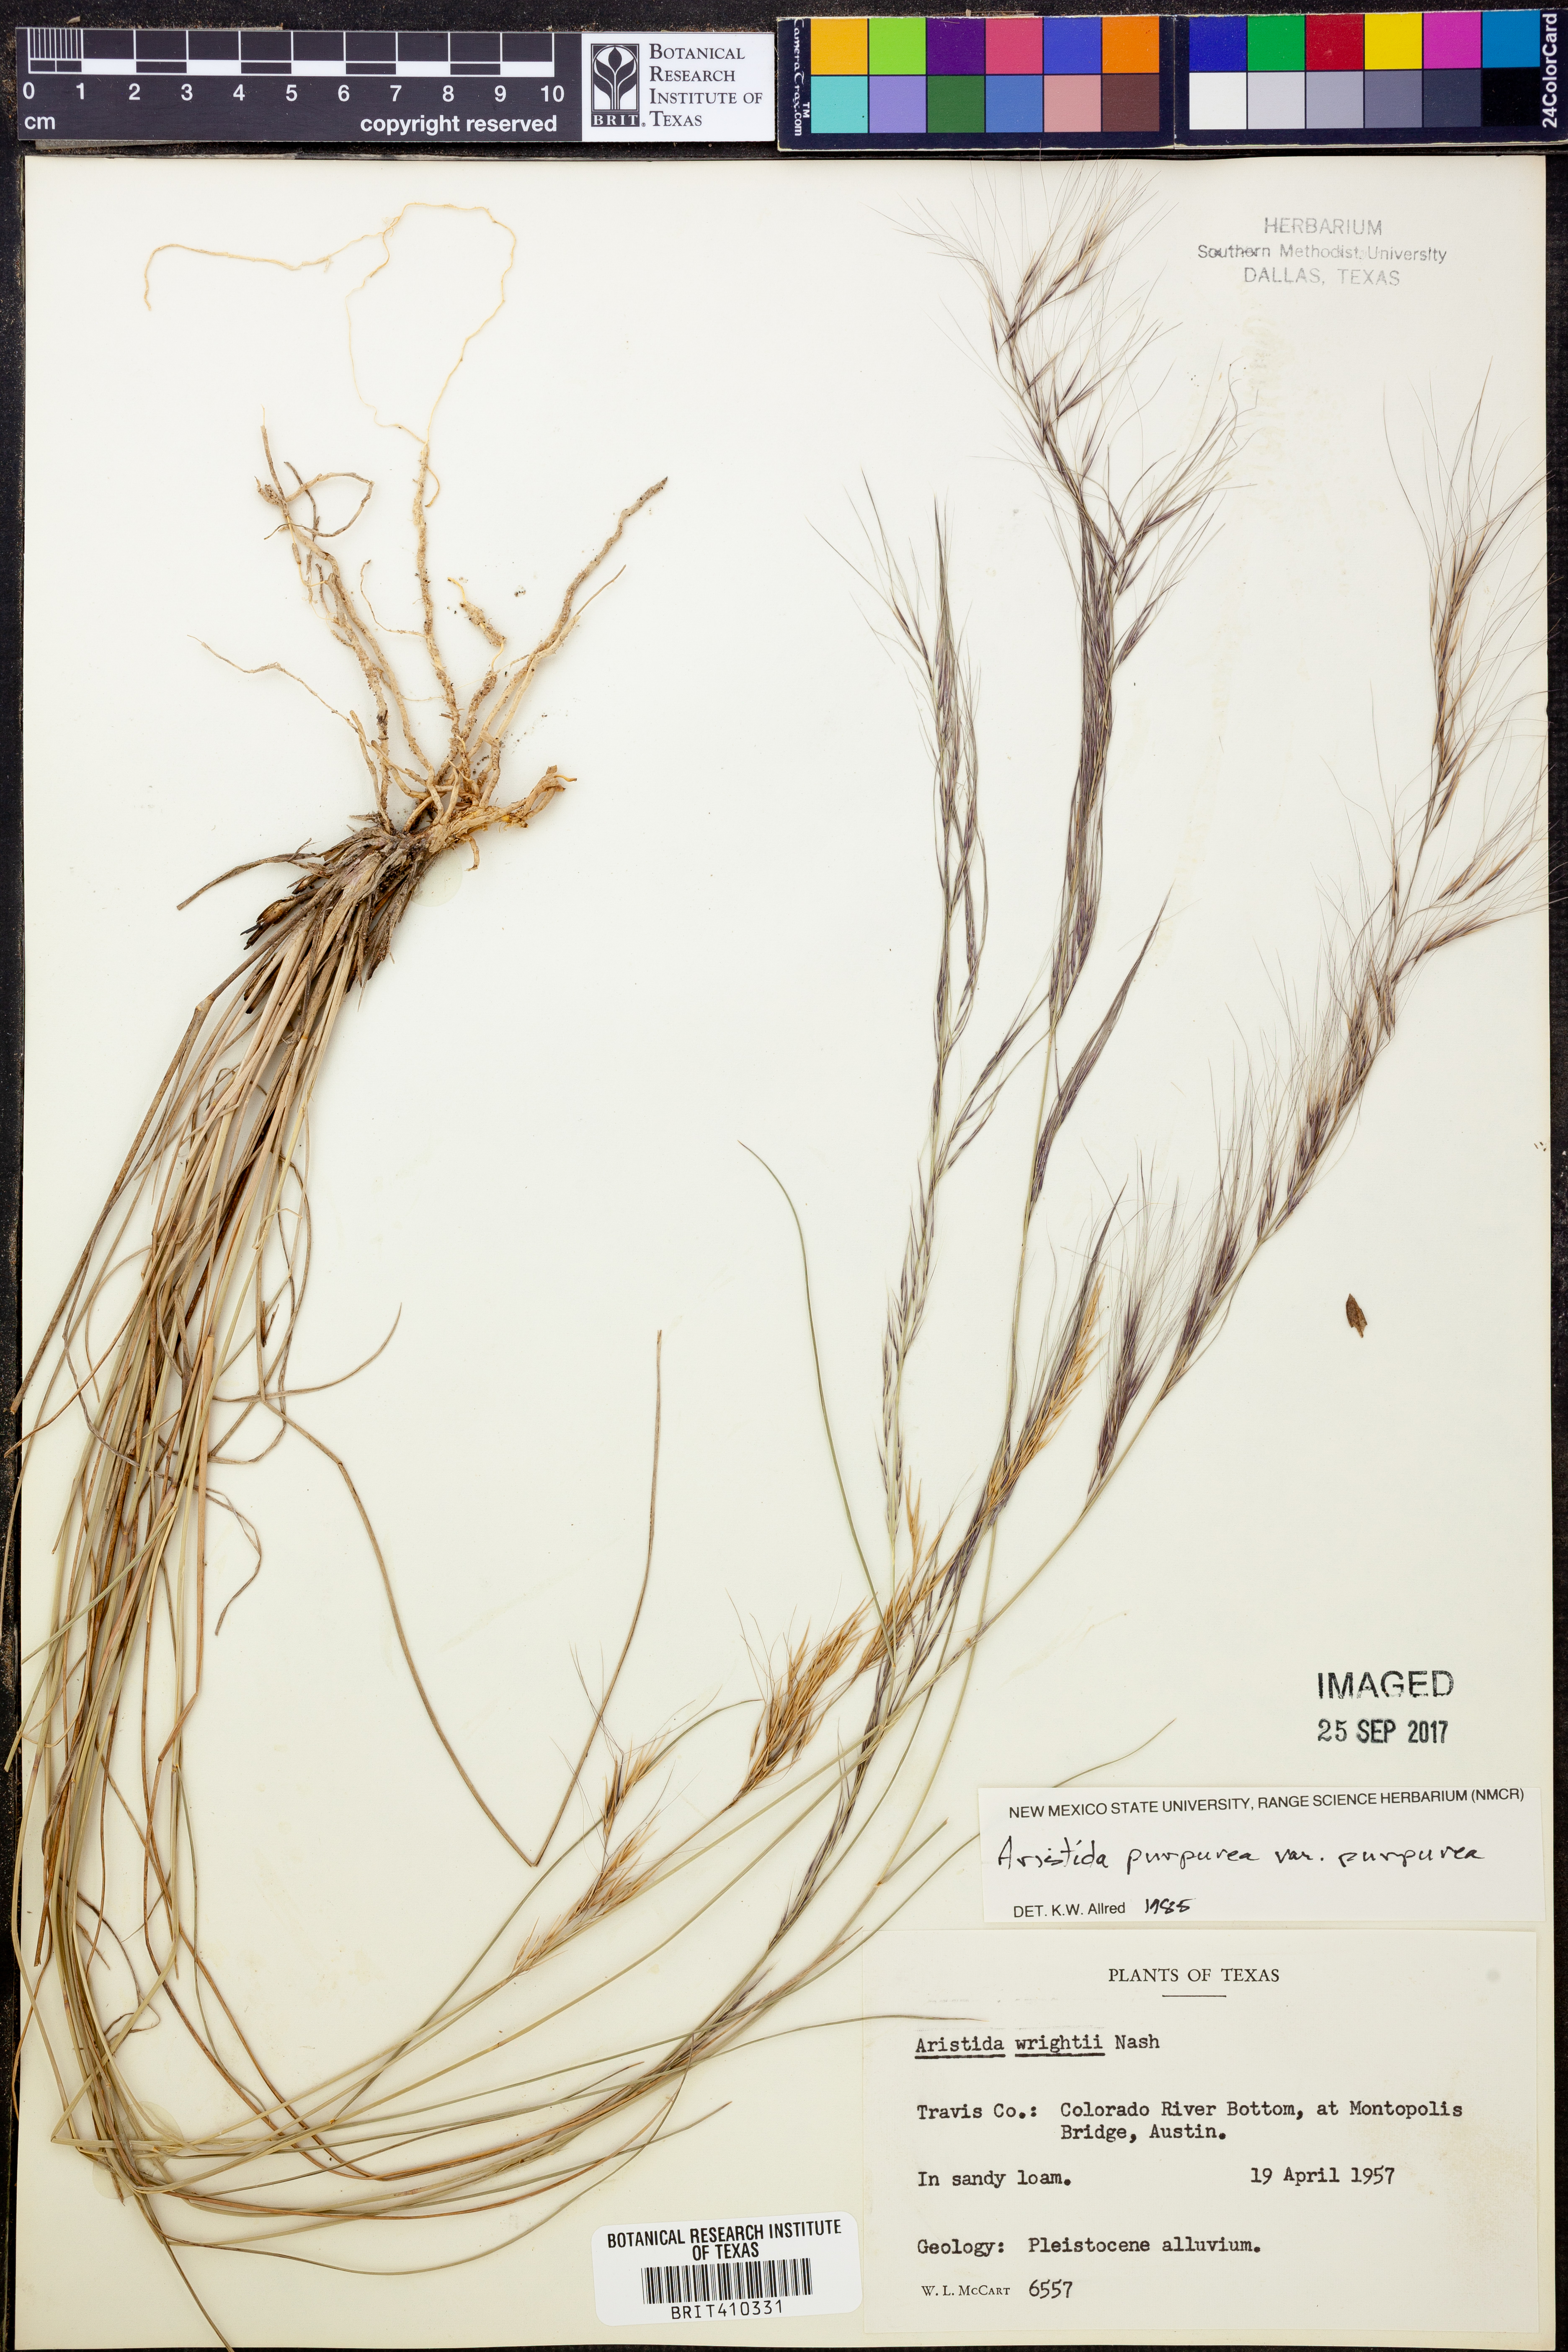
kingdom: Plantae
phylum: Tracheophyta
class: Liliopsida
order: Poales
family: Poaceae
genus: Aristida
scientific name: Aristida purpurea
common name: Purple threeawn
